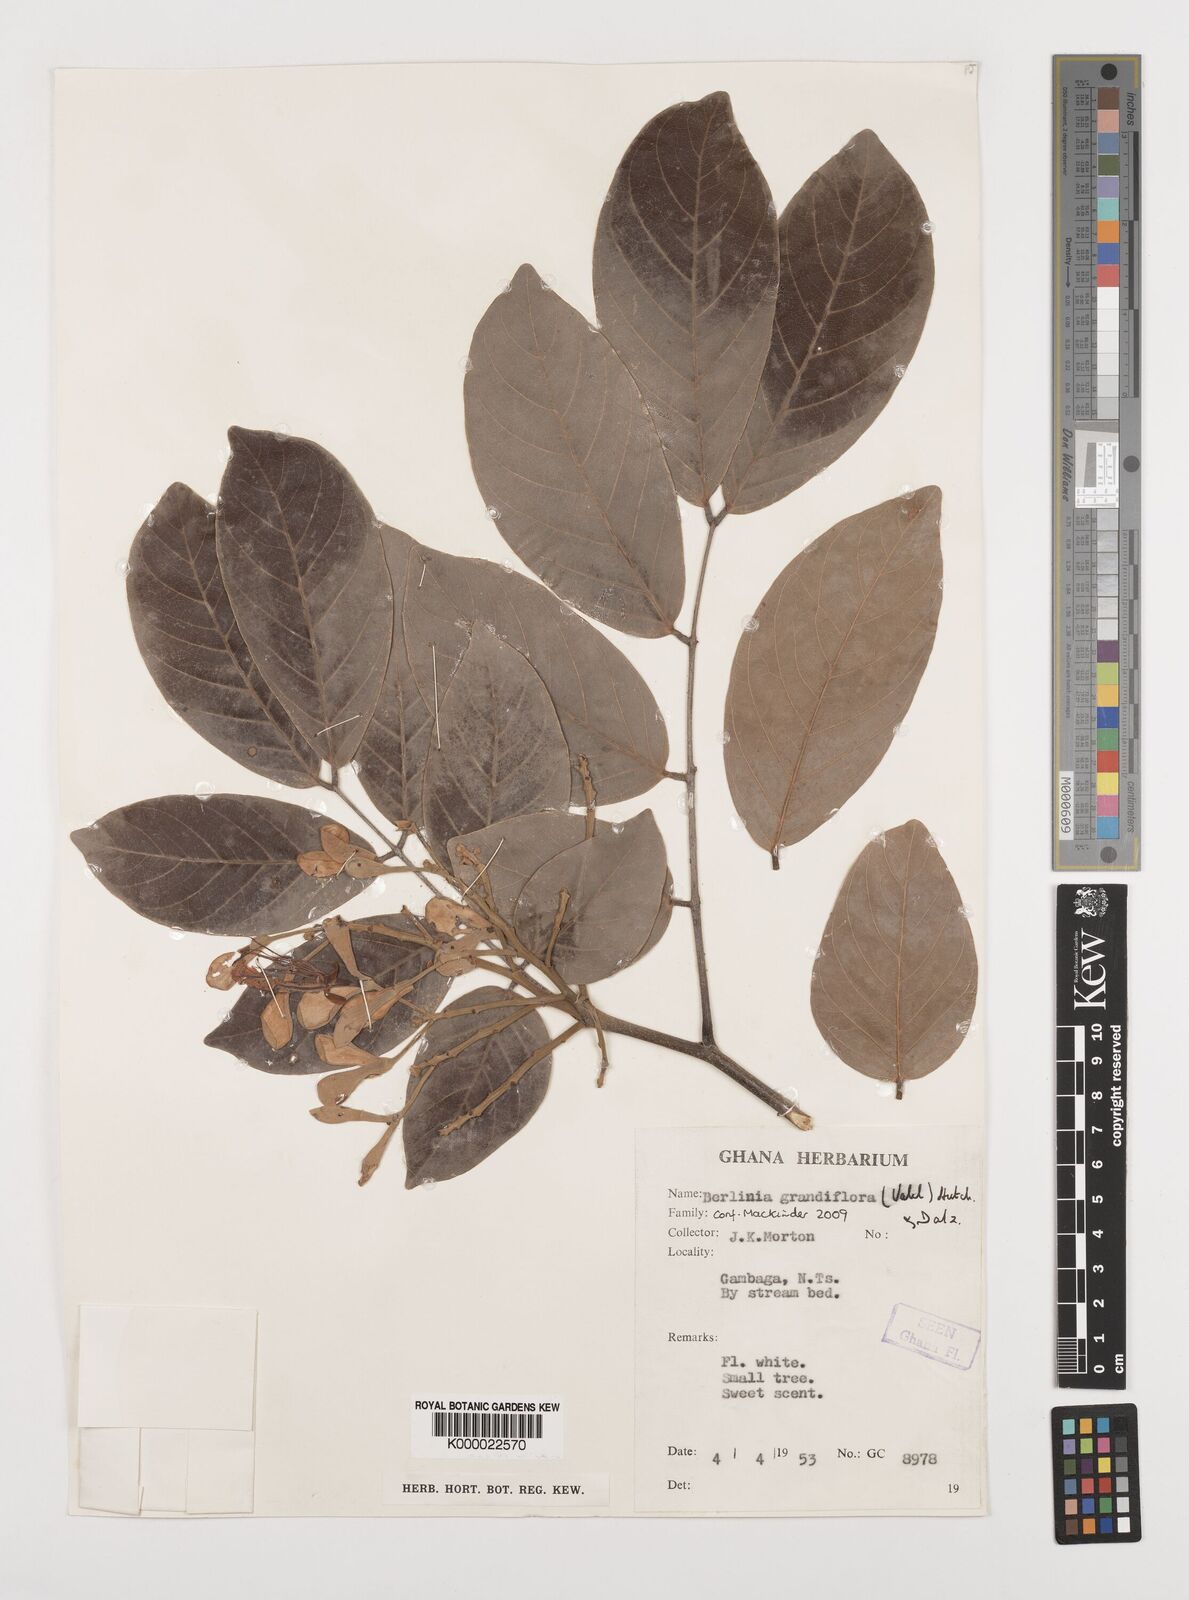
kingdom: Plantae
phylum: Tracheophyta
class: Magnoliopsida
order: Fabales
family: Fabaceae
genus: Berlinia
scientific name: Berlinia grandiflora
